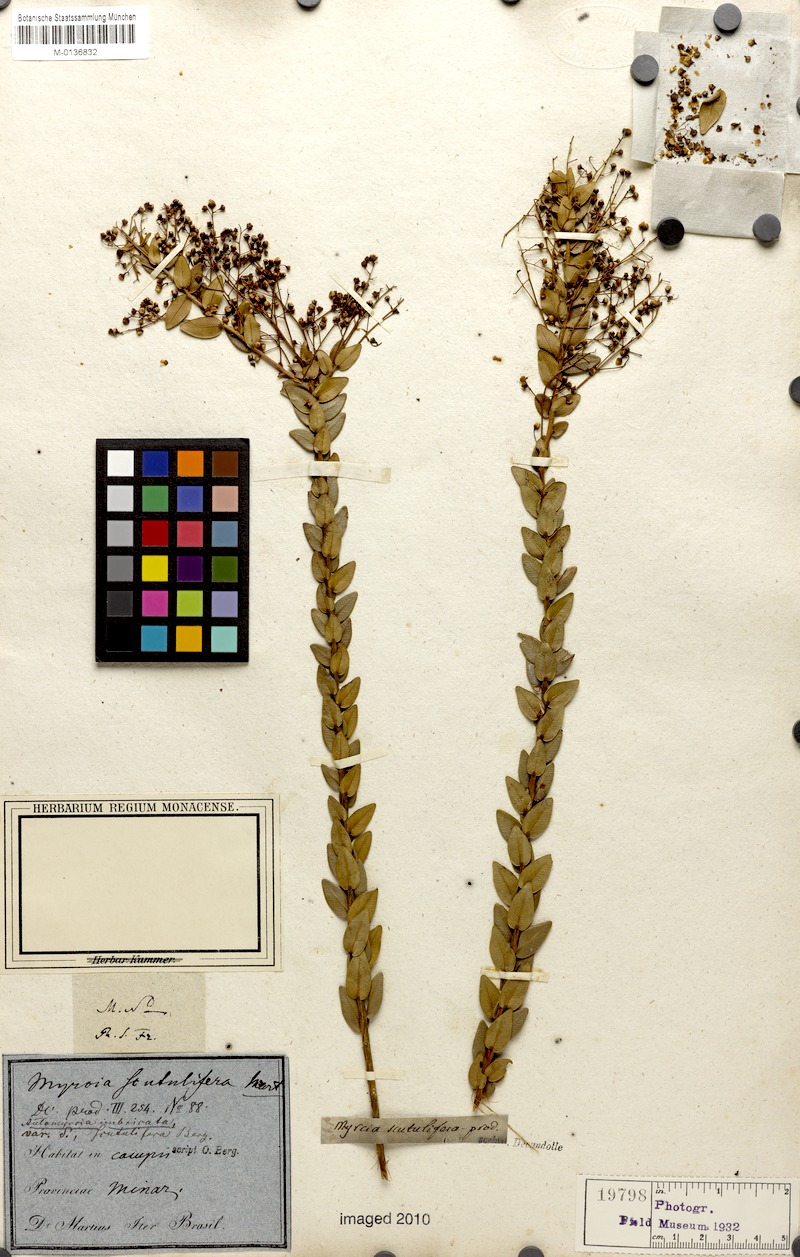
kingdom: Plantae
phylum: Tracheophyta
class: Magnoliopsida
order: Myrtales
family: Myrtaceae
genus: Myrcia
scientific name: Myrcia racemulosa
